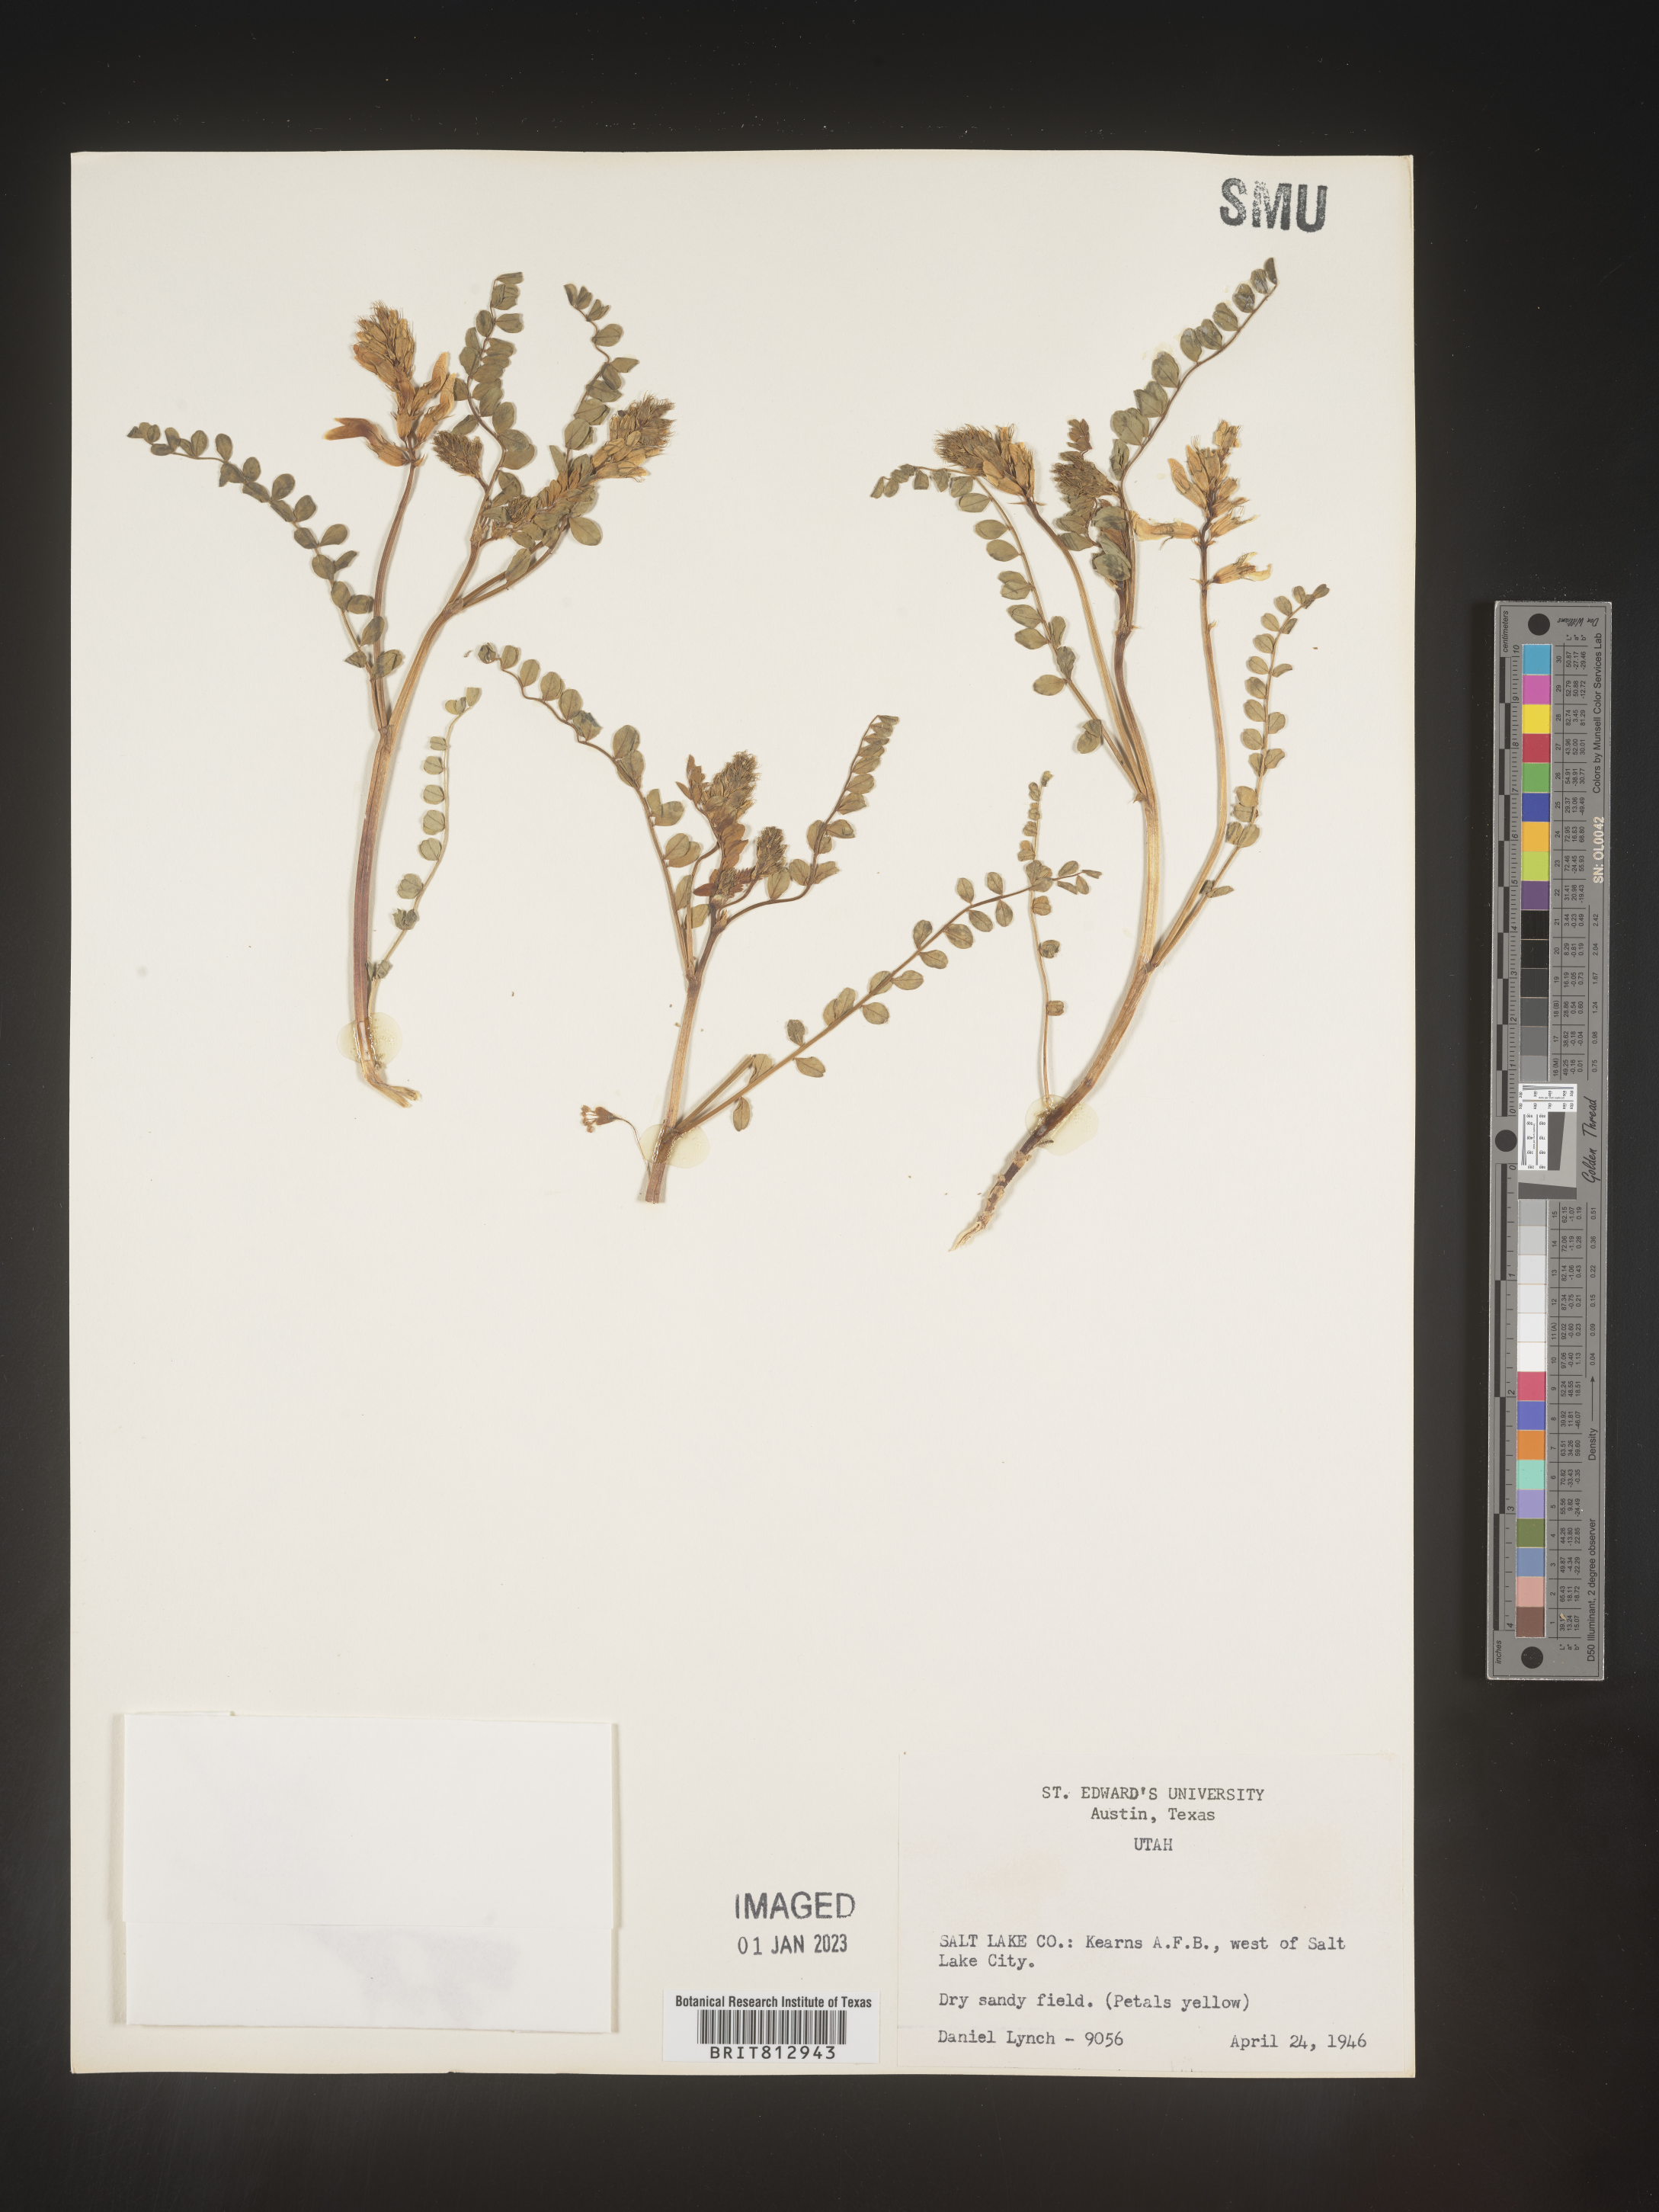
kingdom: Plantae
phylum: Tracheophyta
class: Magnoliopsida
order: Fabales
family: Fabaceae
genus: Astragalus
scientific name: Astragalus
